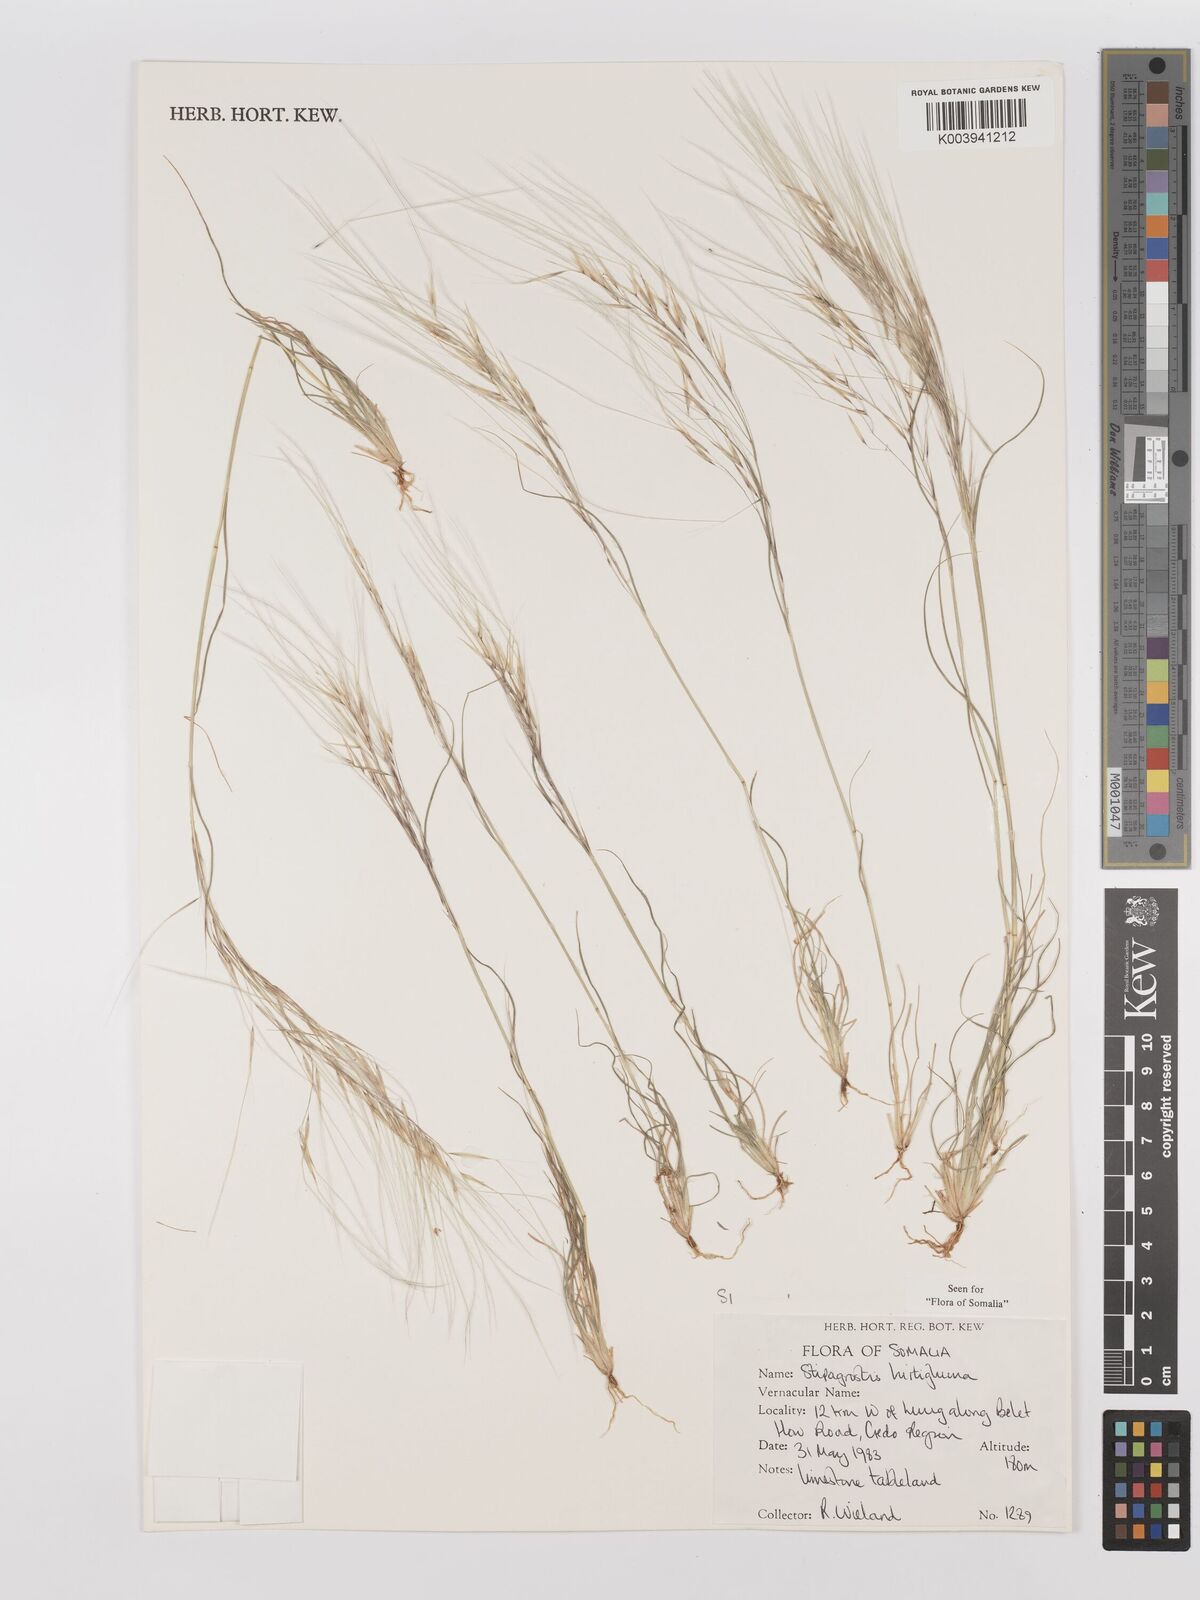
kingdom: Plantae
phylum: Tracheophyta
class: Liliopsida
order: Poales
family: Poaceae
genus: Stipagrostis
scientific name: Stipagrostis hirtigluma
